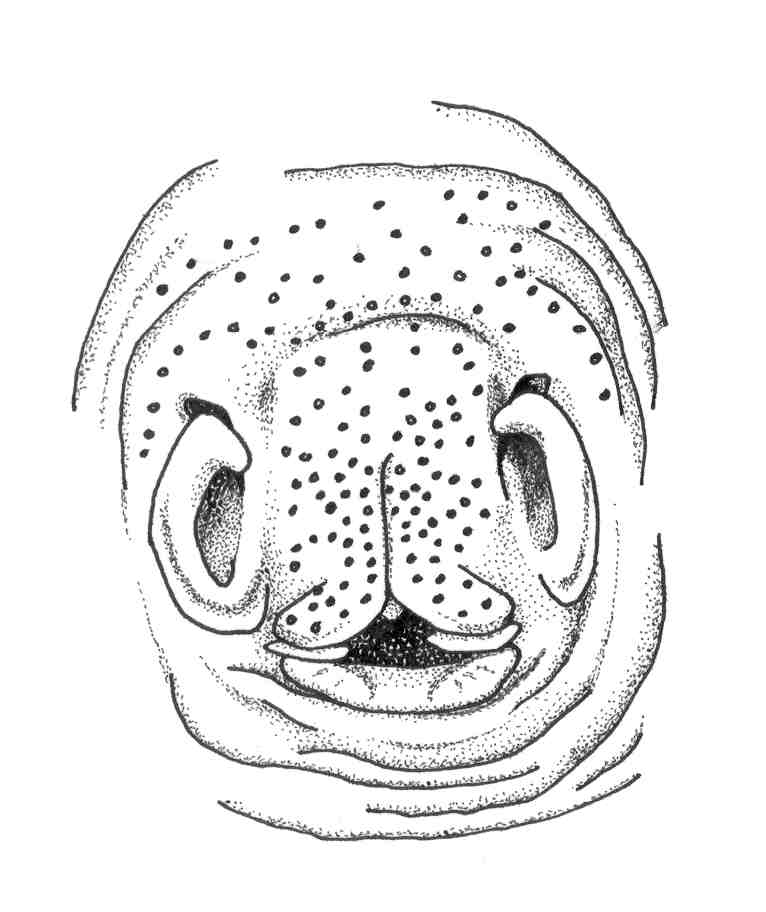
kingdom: Animalia
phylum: Chordata
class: Elasmobranchii
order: Torpediniformes
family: Narkidae
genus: Electrolux
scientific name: Electrolux addisoni
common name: Ornate sleeper-ray
